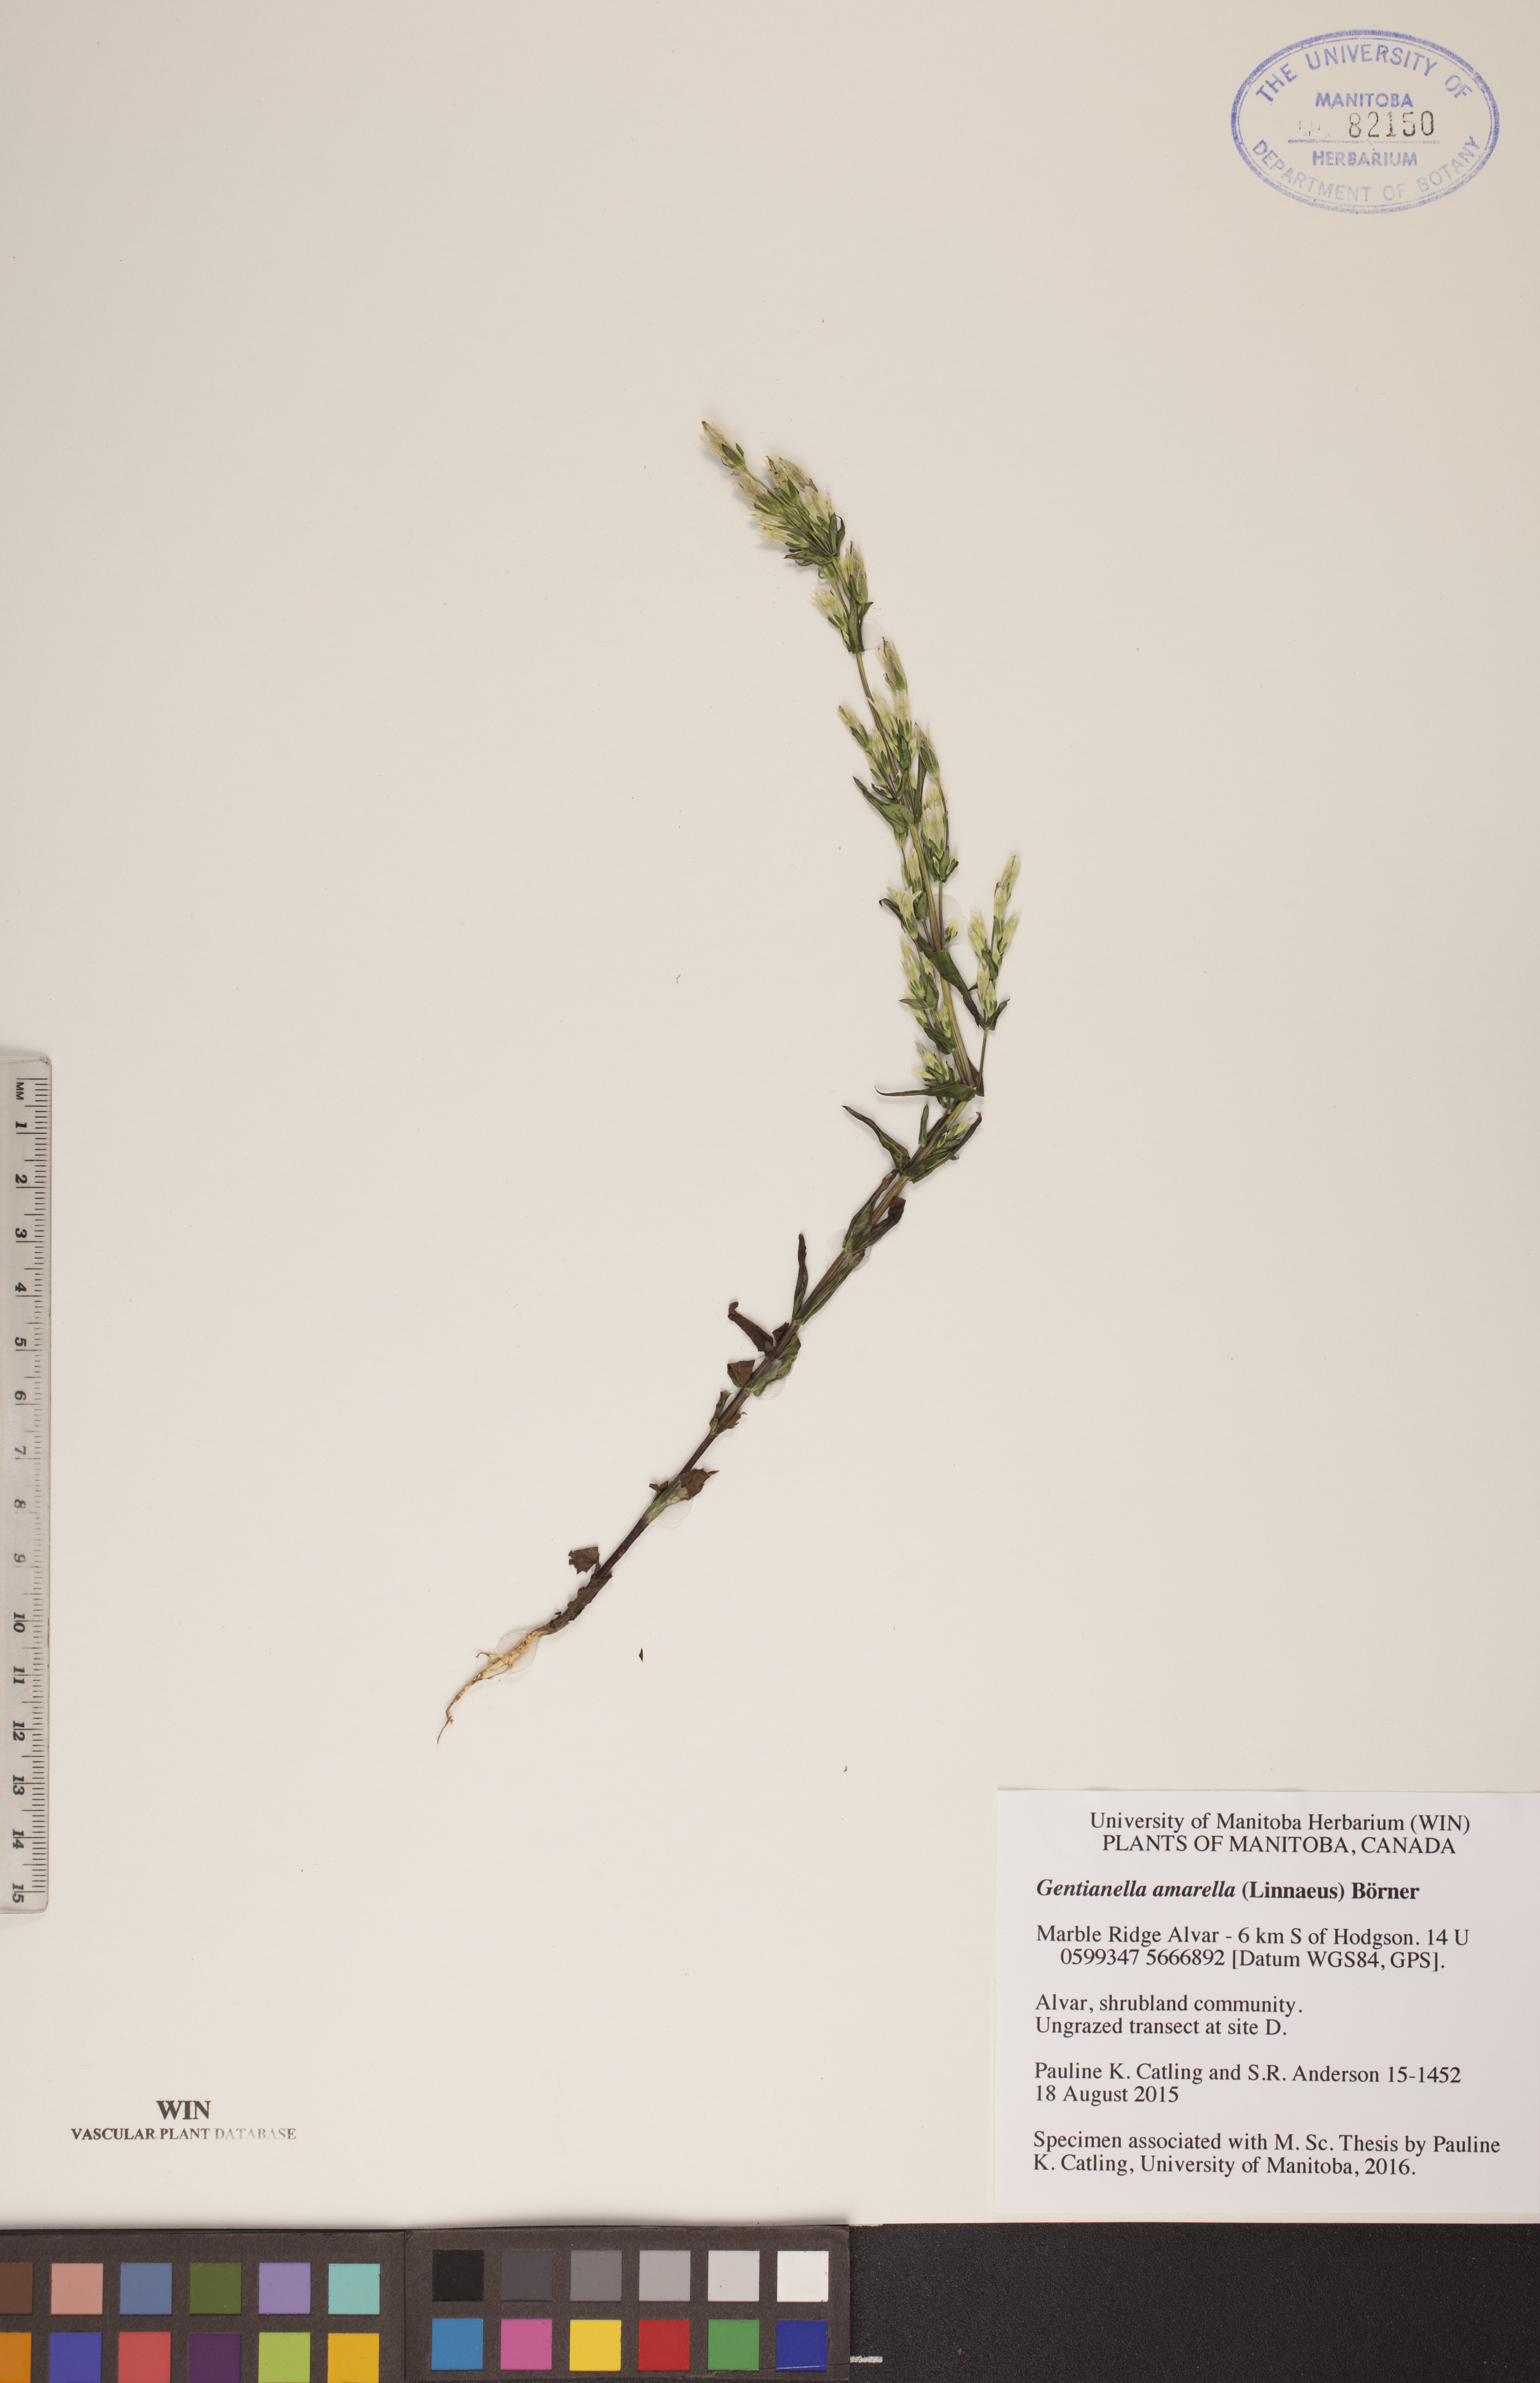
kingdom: Plantae
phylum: Tracheophyta
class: Magnoliopsida
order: Gentianales
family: Gentianaceae
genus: Gentianella
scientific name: Gentianella amarella
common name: Autumn gentian
